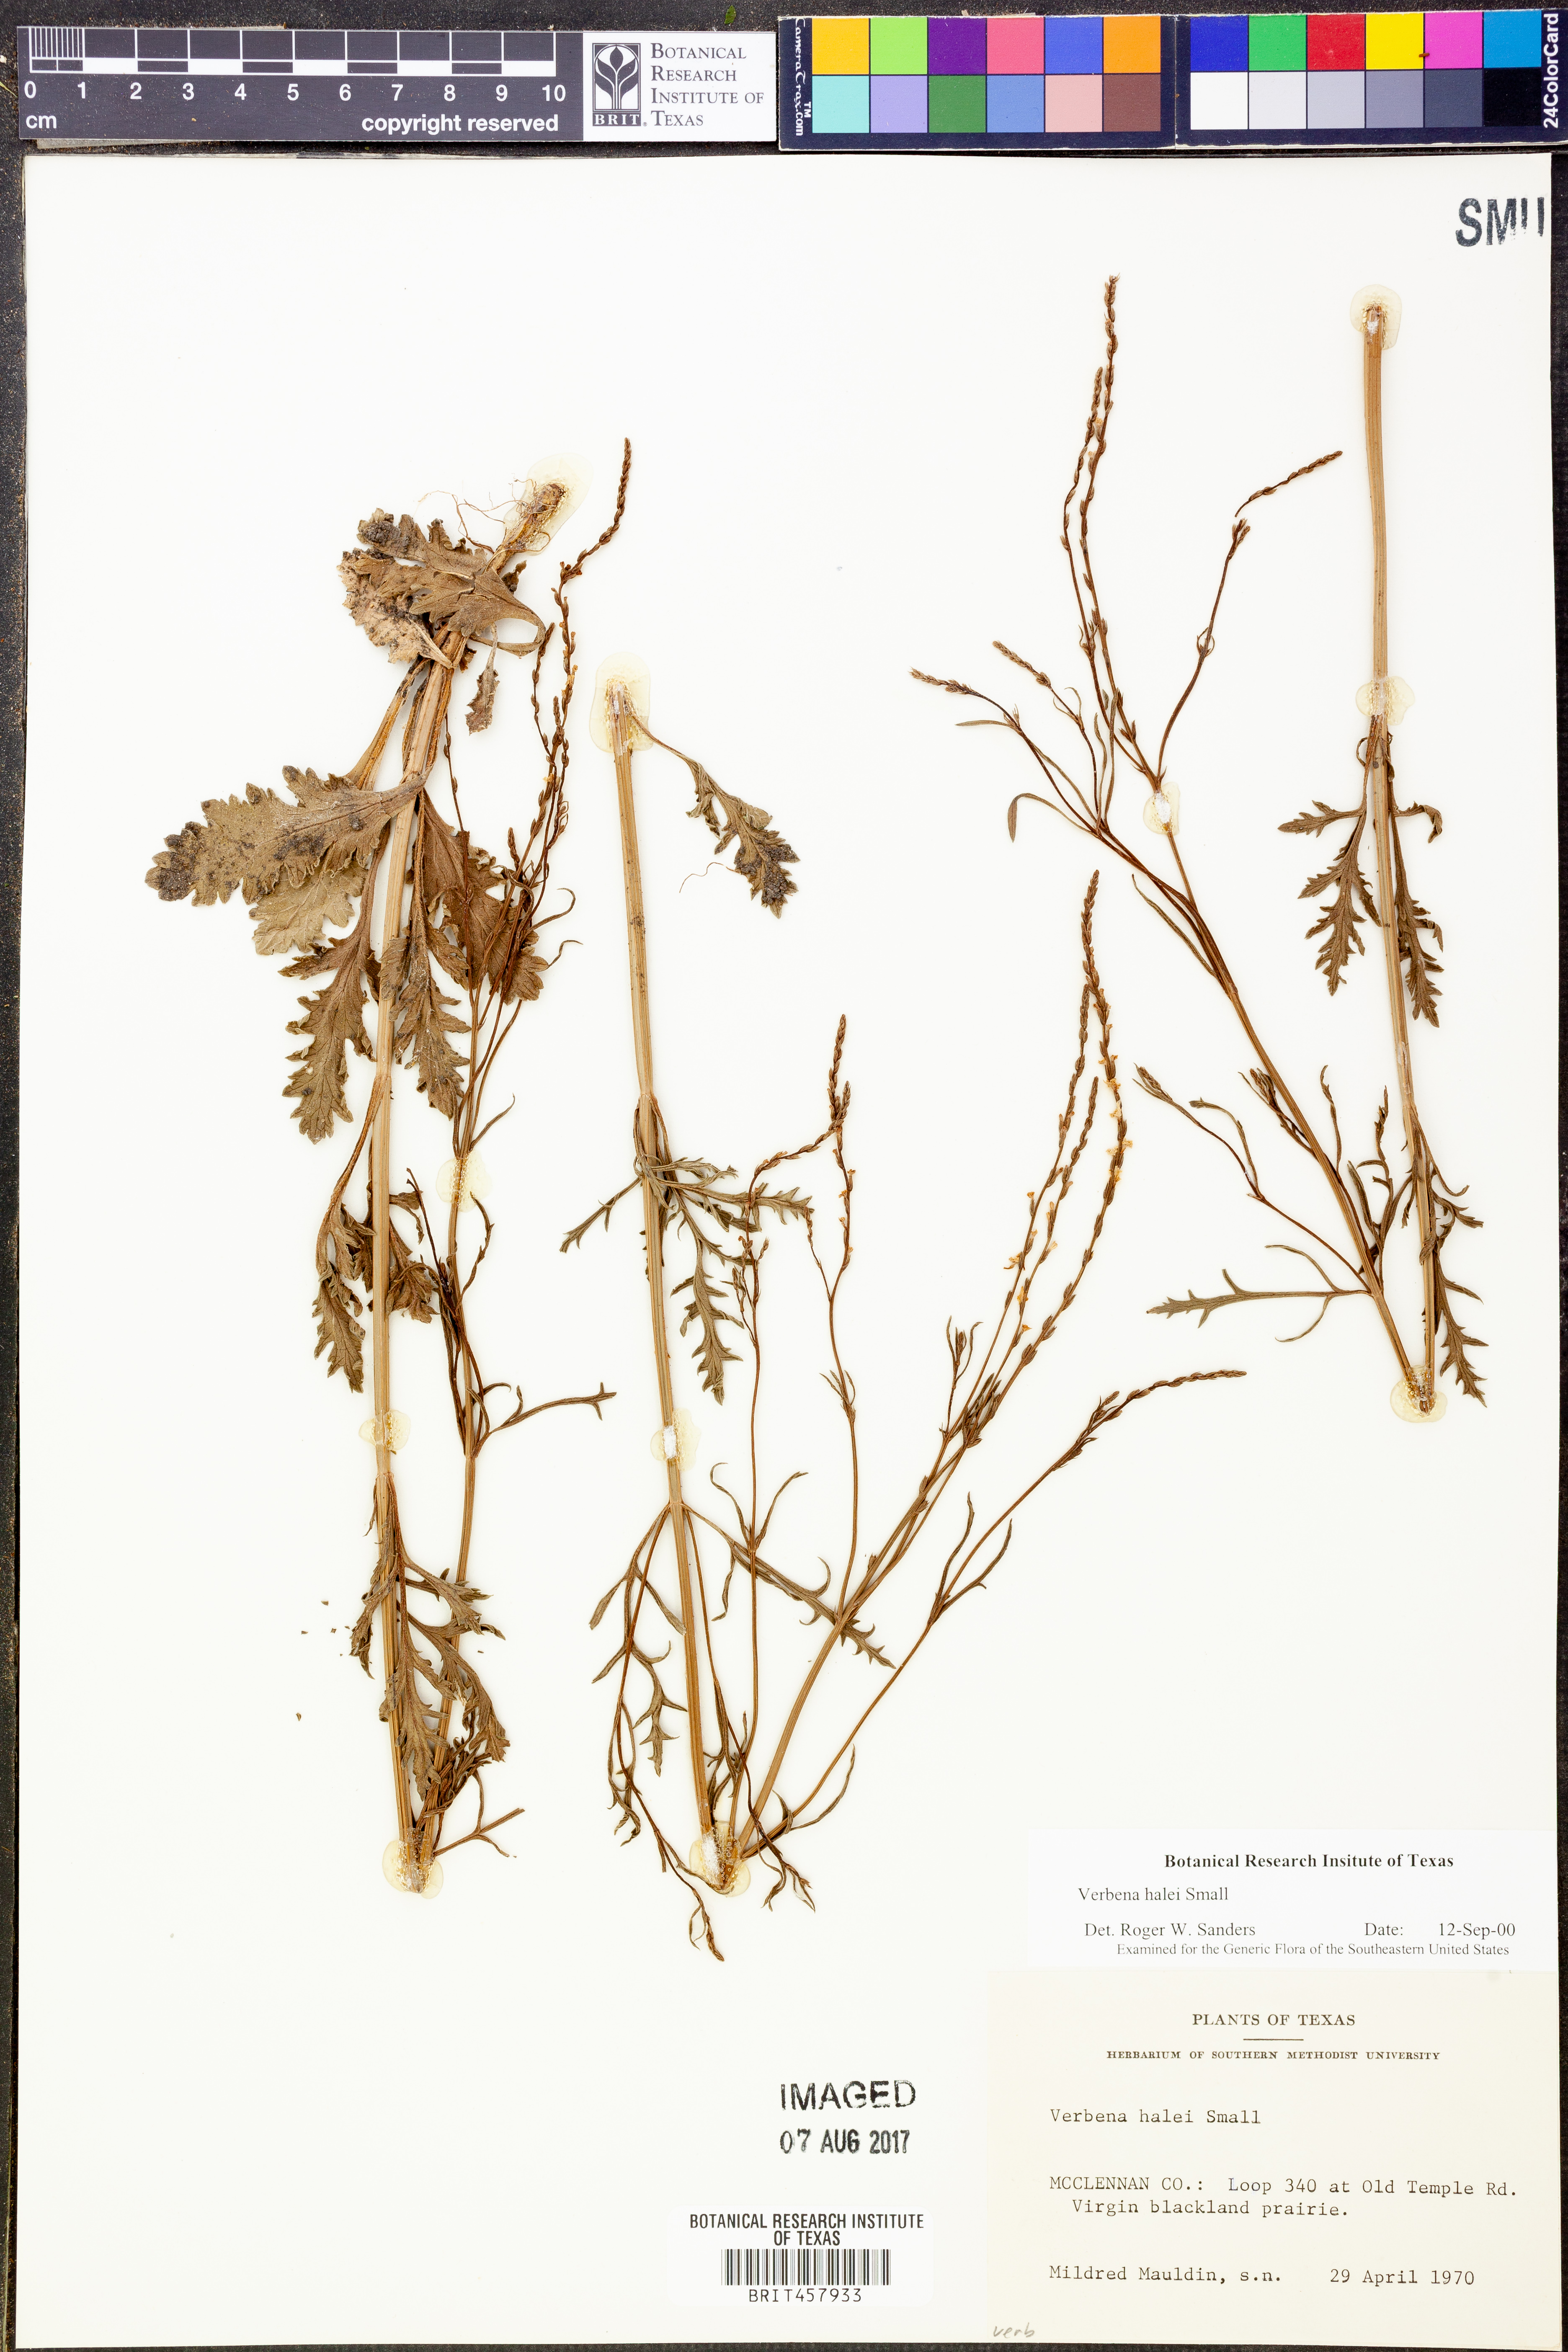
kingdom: Plantae
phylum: Tracheophyta
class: Magnoliopsida
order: Lamiales
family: Verbenaceae
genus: Verbena
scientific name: Verbena halei
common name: Texas vervain
